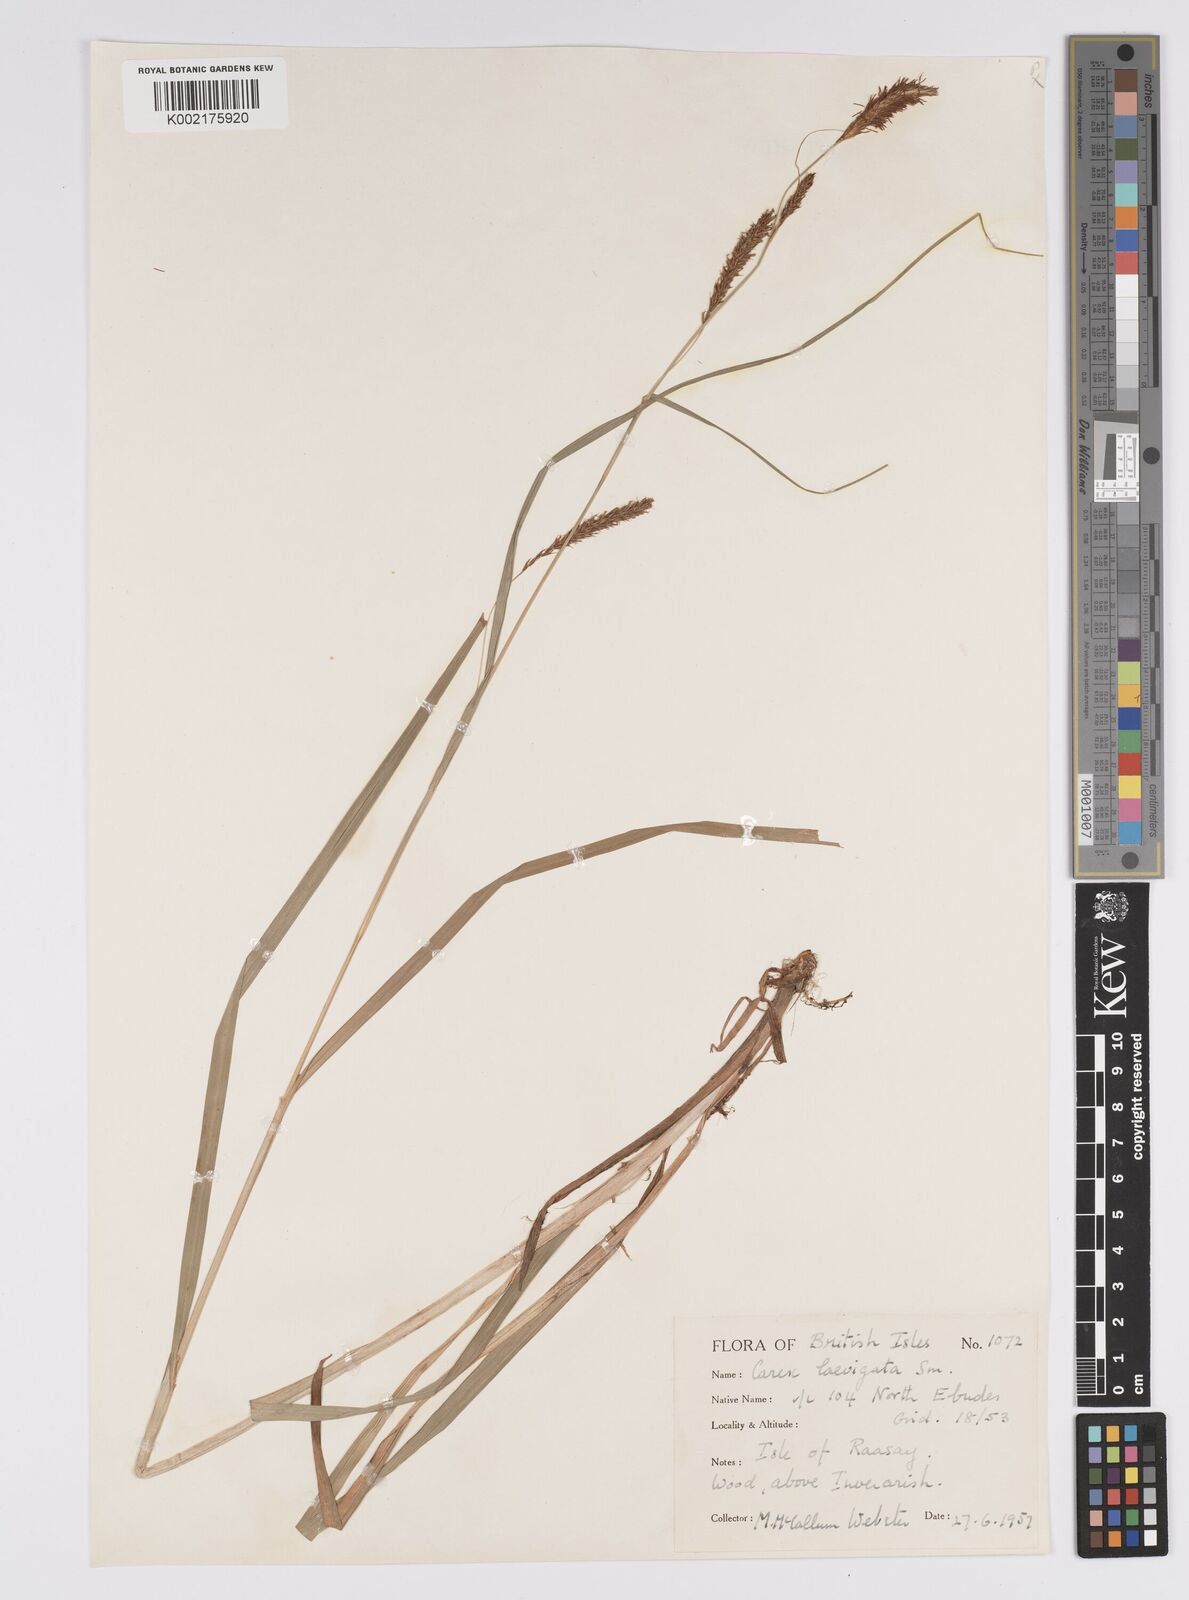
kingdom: Plantae
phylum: Tracheophyta
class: Liliopsida
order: Poales
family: Cyperaceae
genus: Carex
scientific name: Carex laevigata
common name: Smooth-stalked sedge
